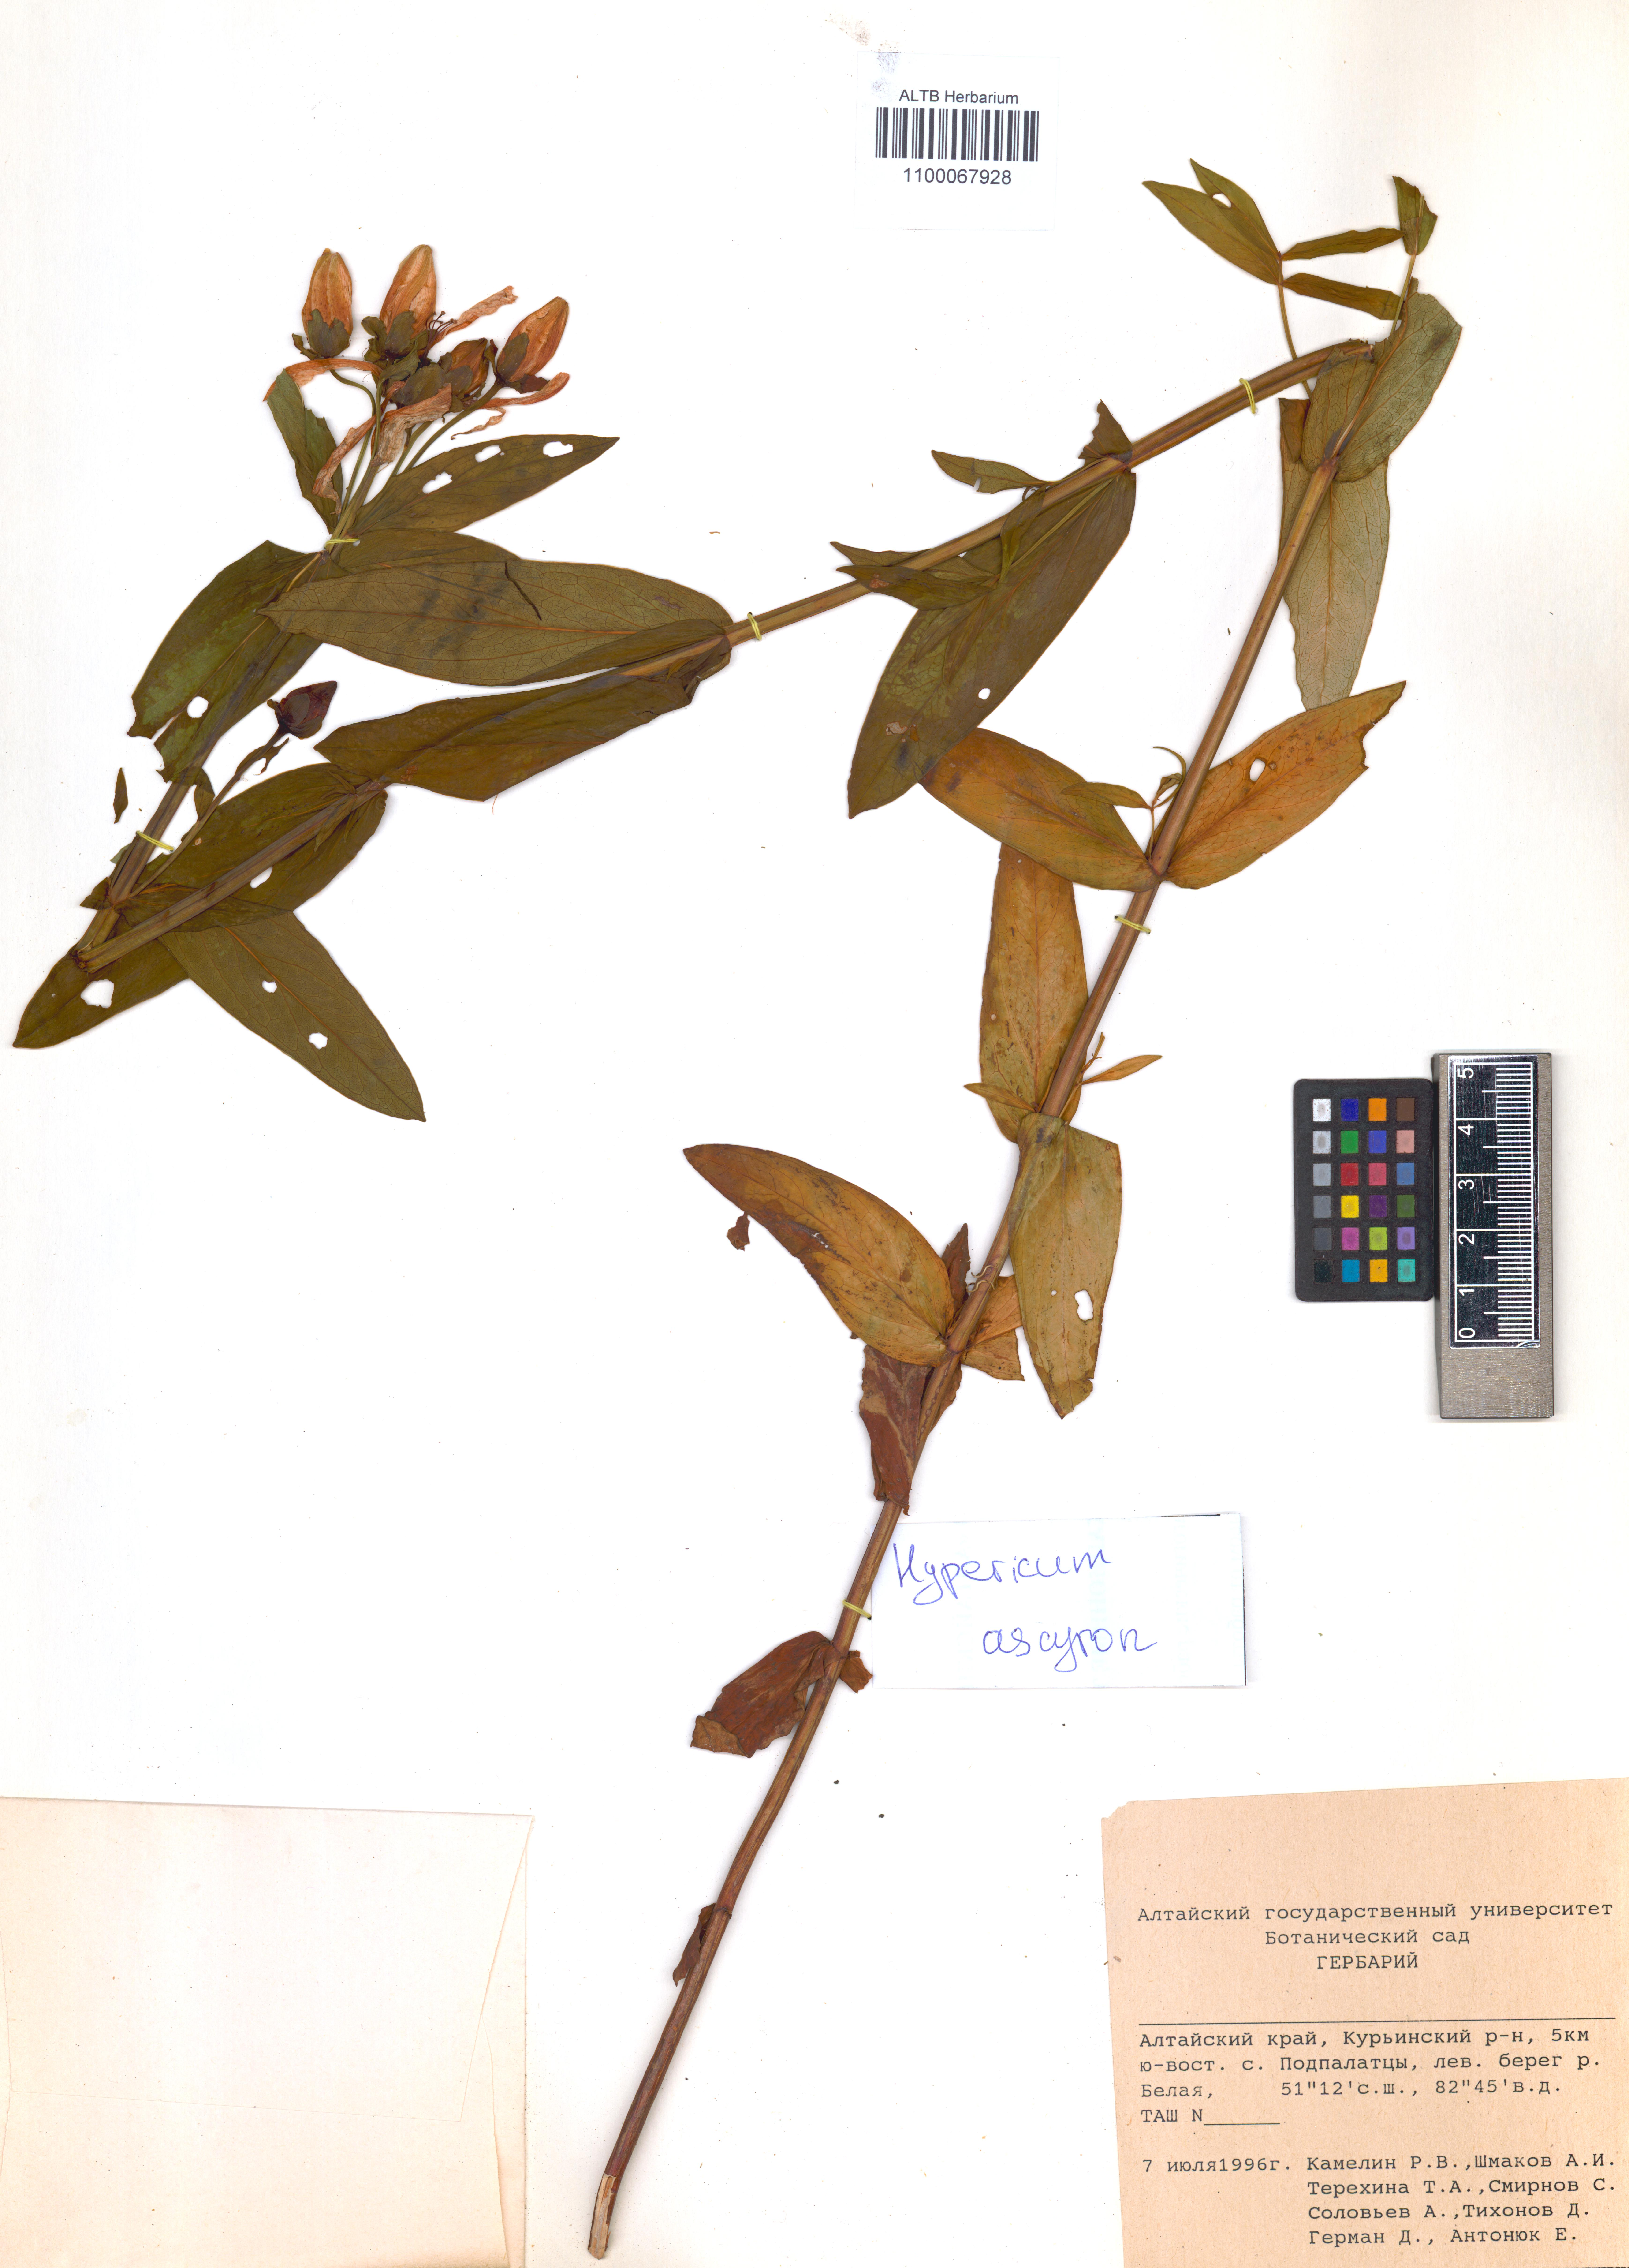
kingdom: Plantae
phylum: Tracheophyta
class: Magnoliopsida
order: Malpighiales
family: Hypericaceae
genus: Hypericum
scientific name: Hypericum ascyron
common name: Giant st. john's-wort
